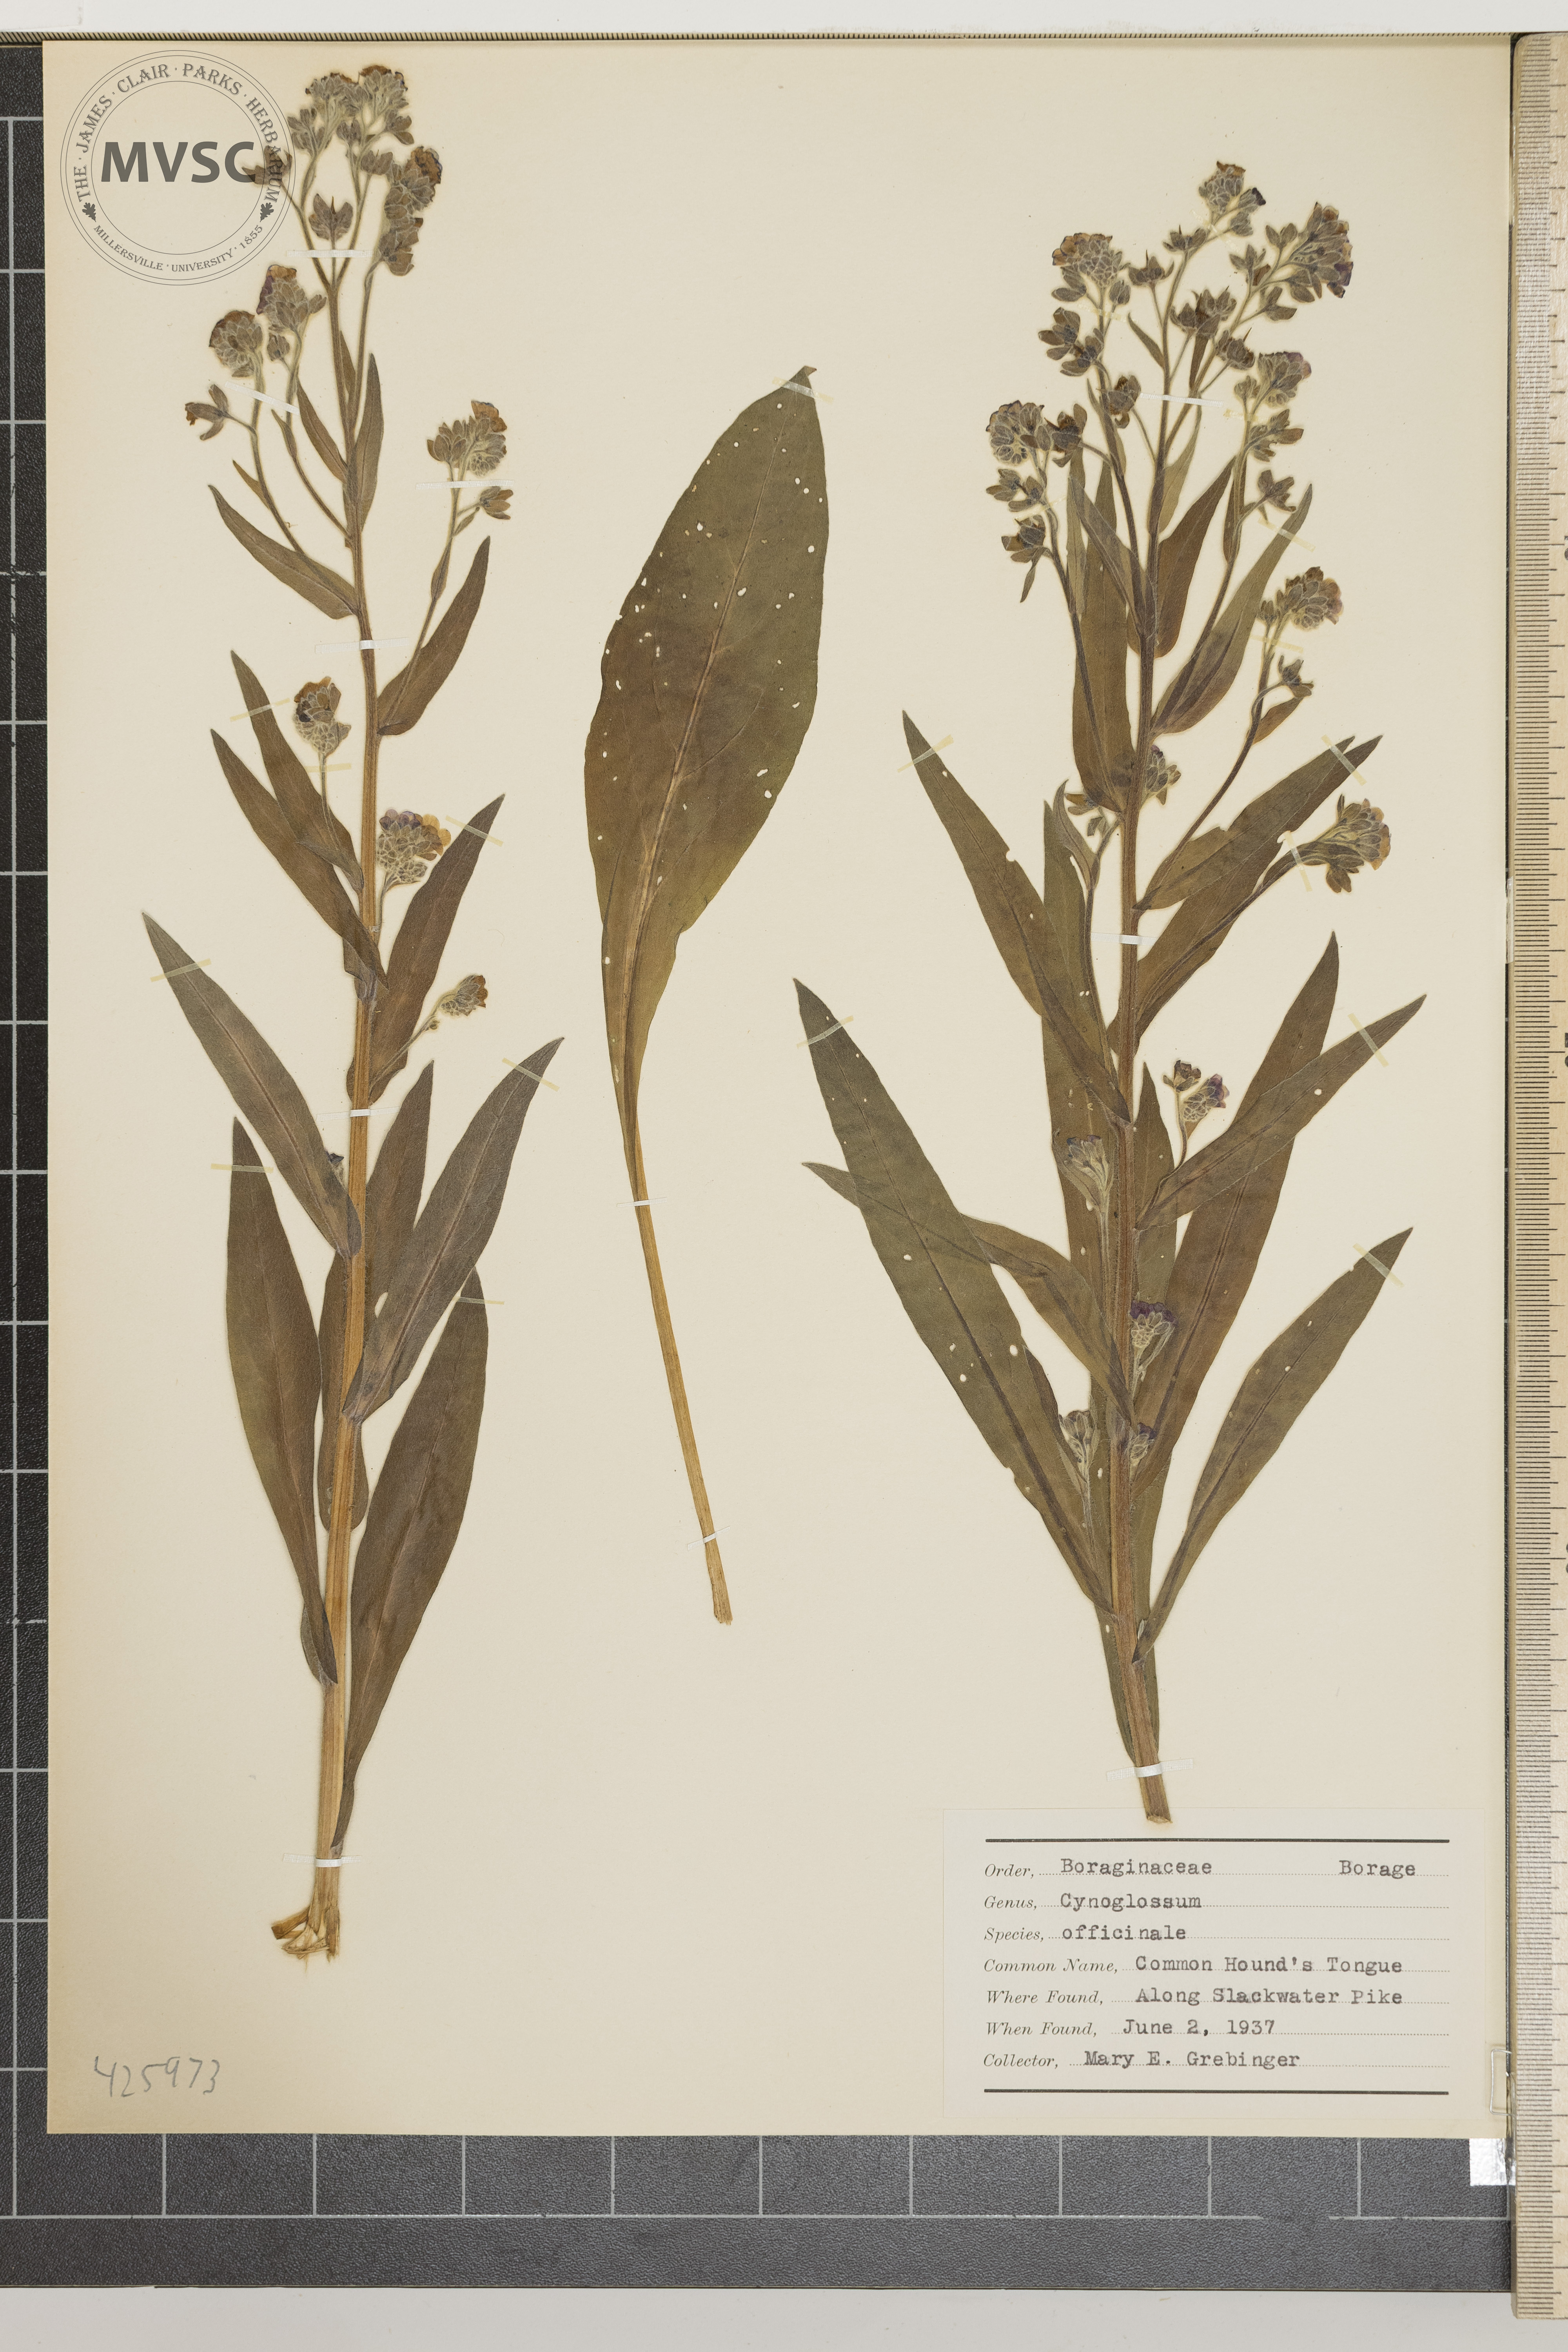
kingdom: Plantae
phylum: Tracheophyta
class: Magnoliopsida
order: Boraginales
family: Boraginaceae
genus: Cynoglossum
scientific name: Cynoglossum officinale
